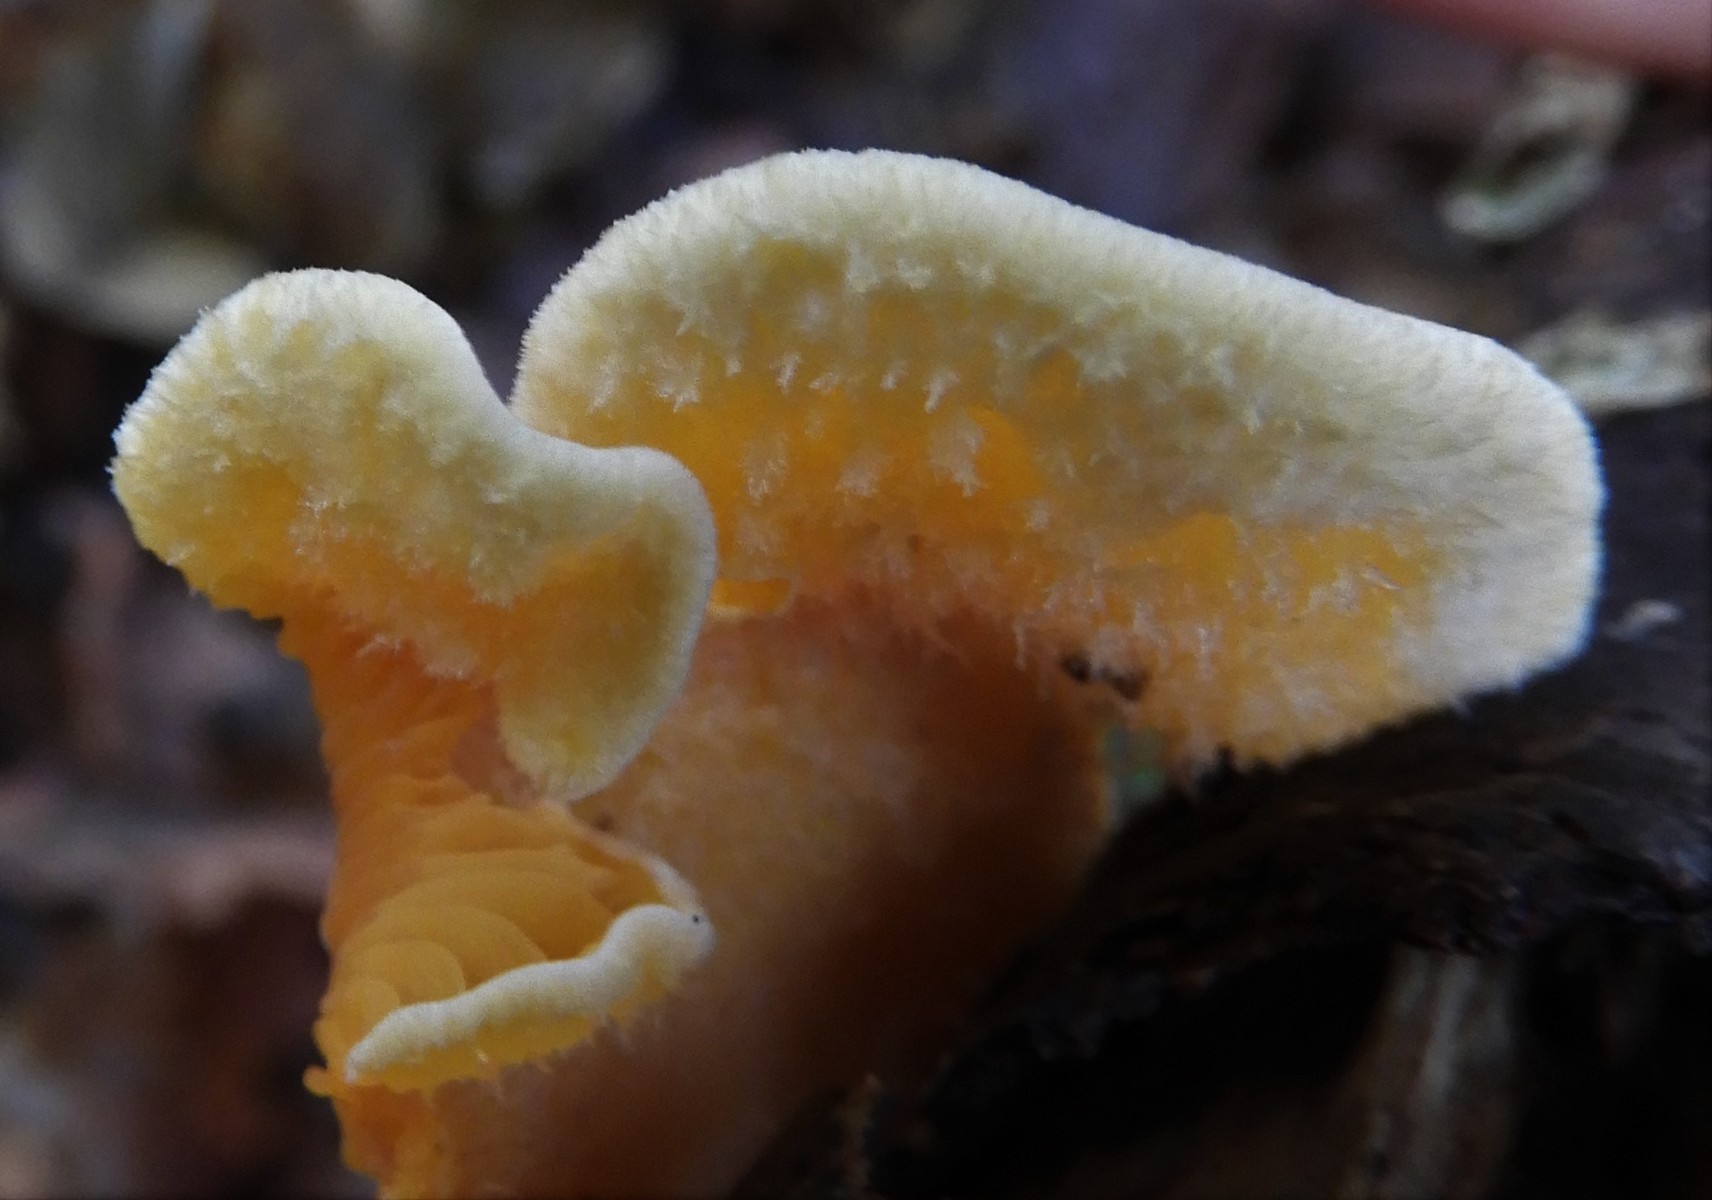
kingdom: Fungi
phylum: Basidiomycota
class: Agaricomycetes
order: Agaricales
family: Phyllotopsidaceae
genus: Phyllotopsis
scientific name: Phyllotopsis nidulans
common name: okkerblad
